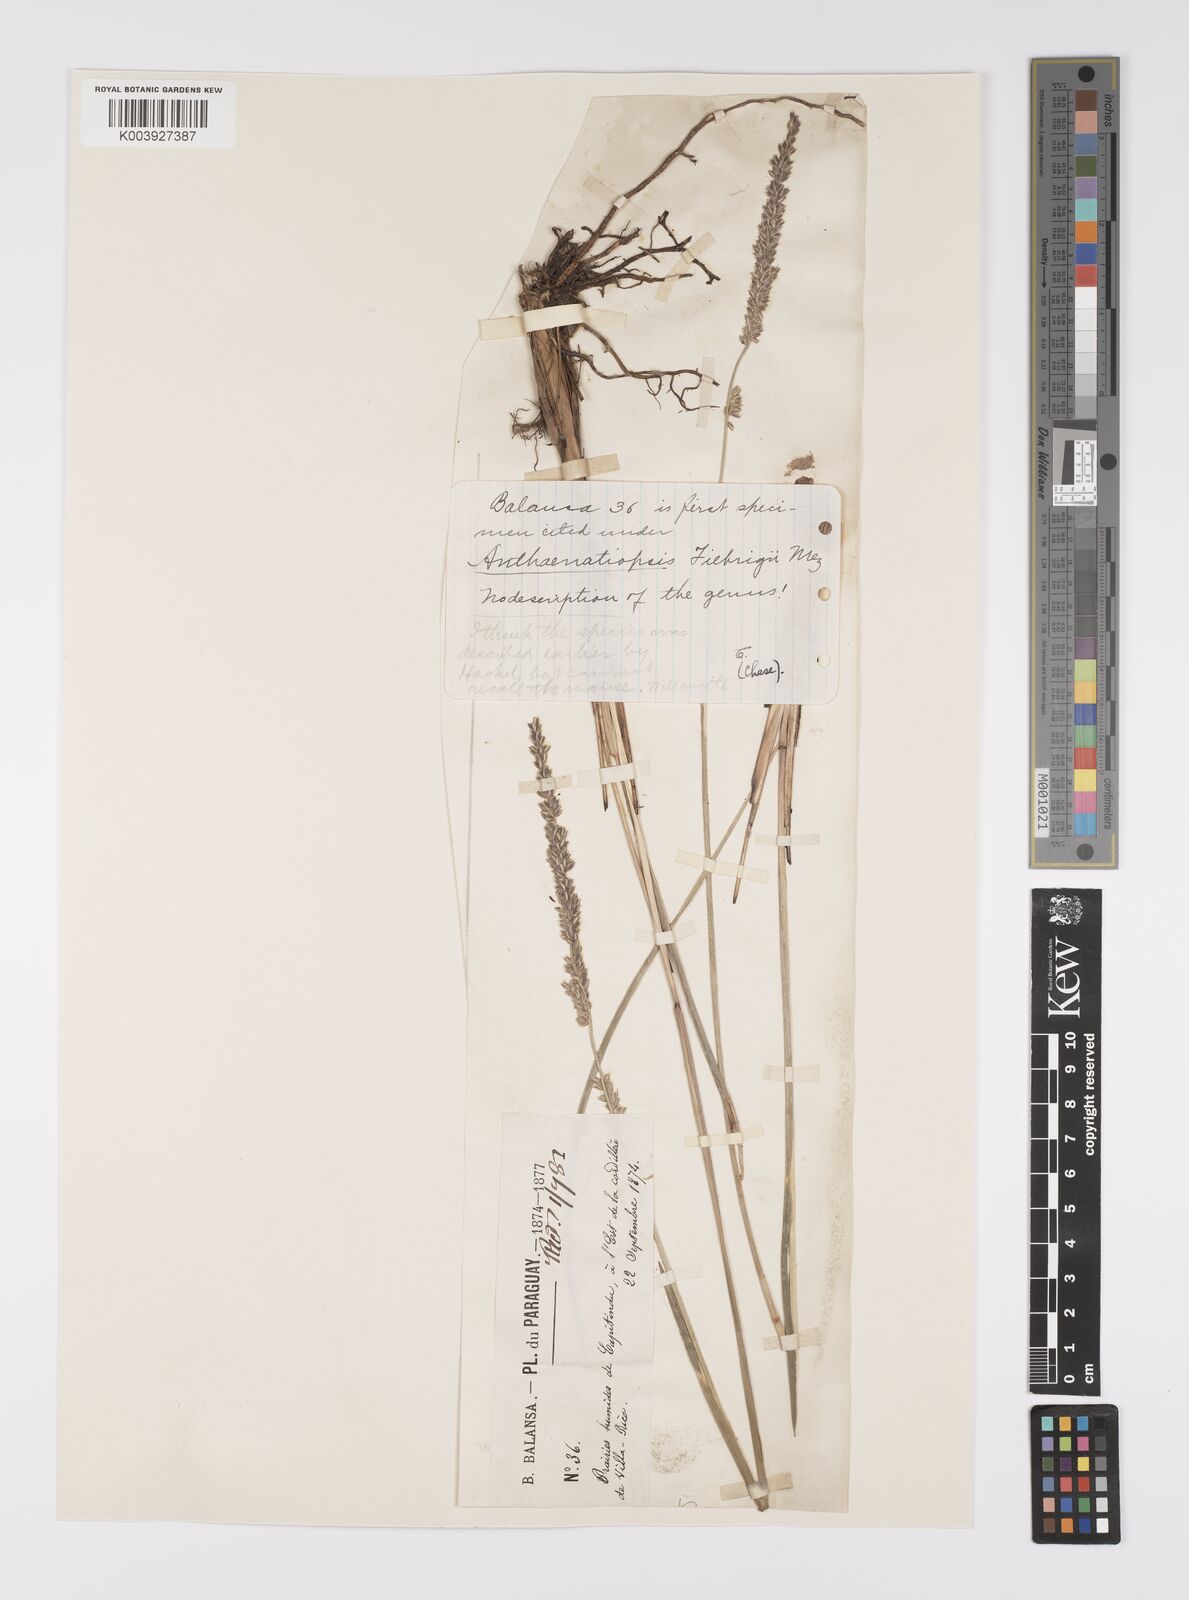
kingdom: Plantae
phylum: Tracheophyta
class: Liliopsida
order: Poales
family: Poaceae
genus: Anthaenantiopsis
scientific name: Anthaenantiopsis rojasiana
